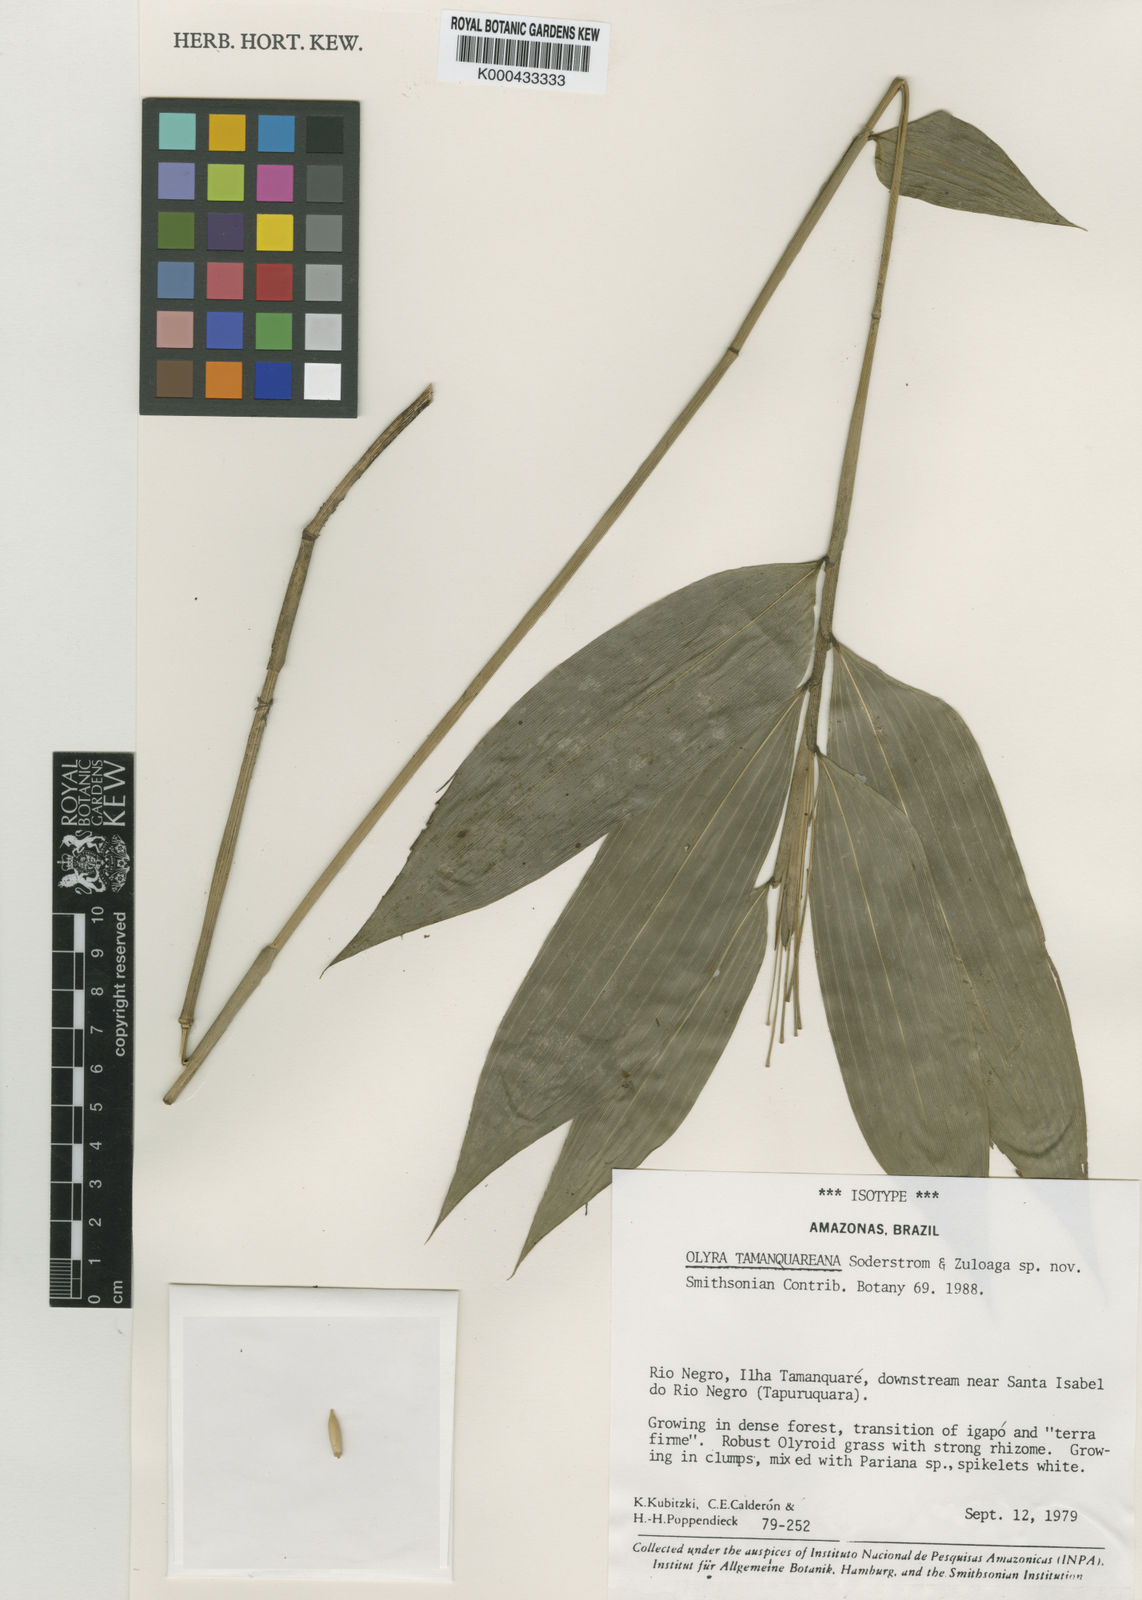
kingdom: Plantae
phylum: Tracheophyta
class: Liliopsida
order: Poales
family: Poaceae
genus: Olyra
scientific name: Olyra tamanquareana
